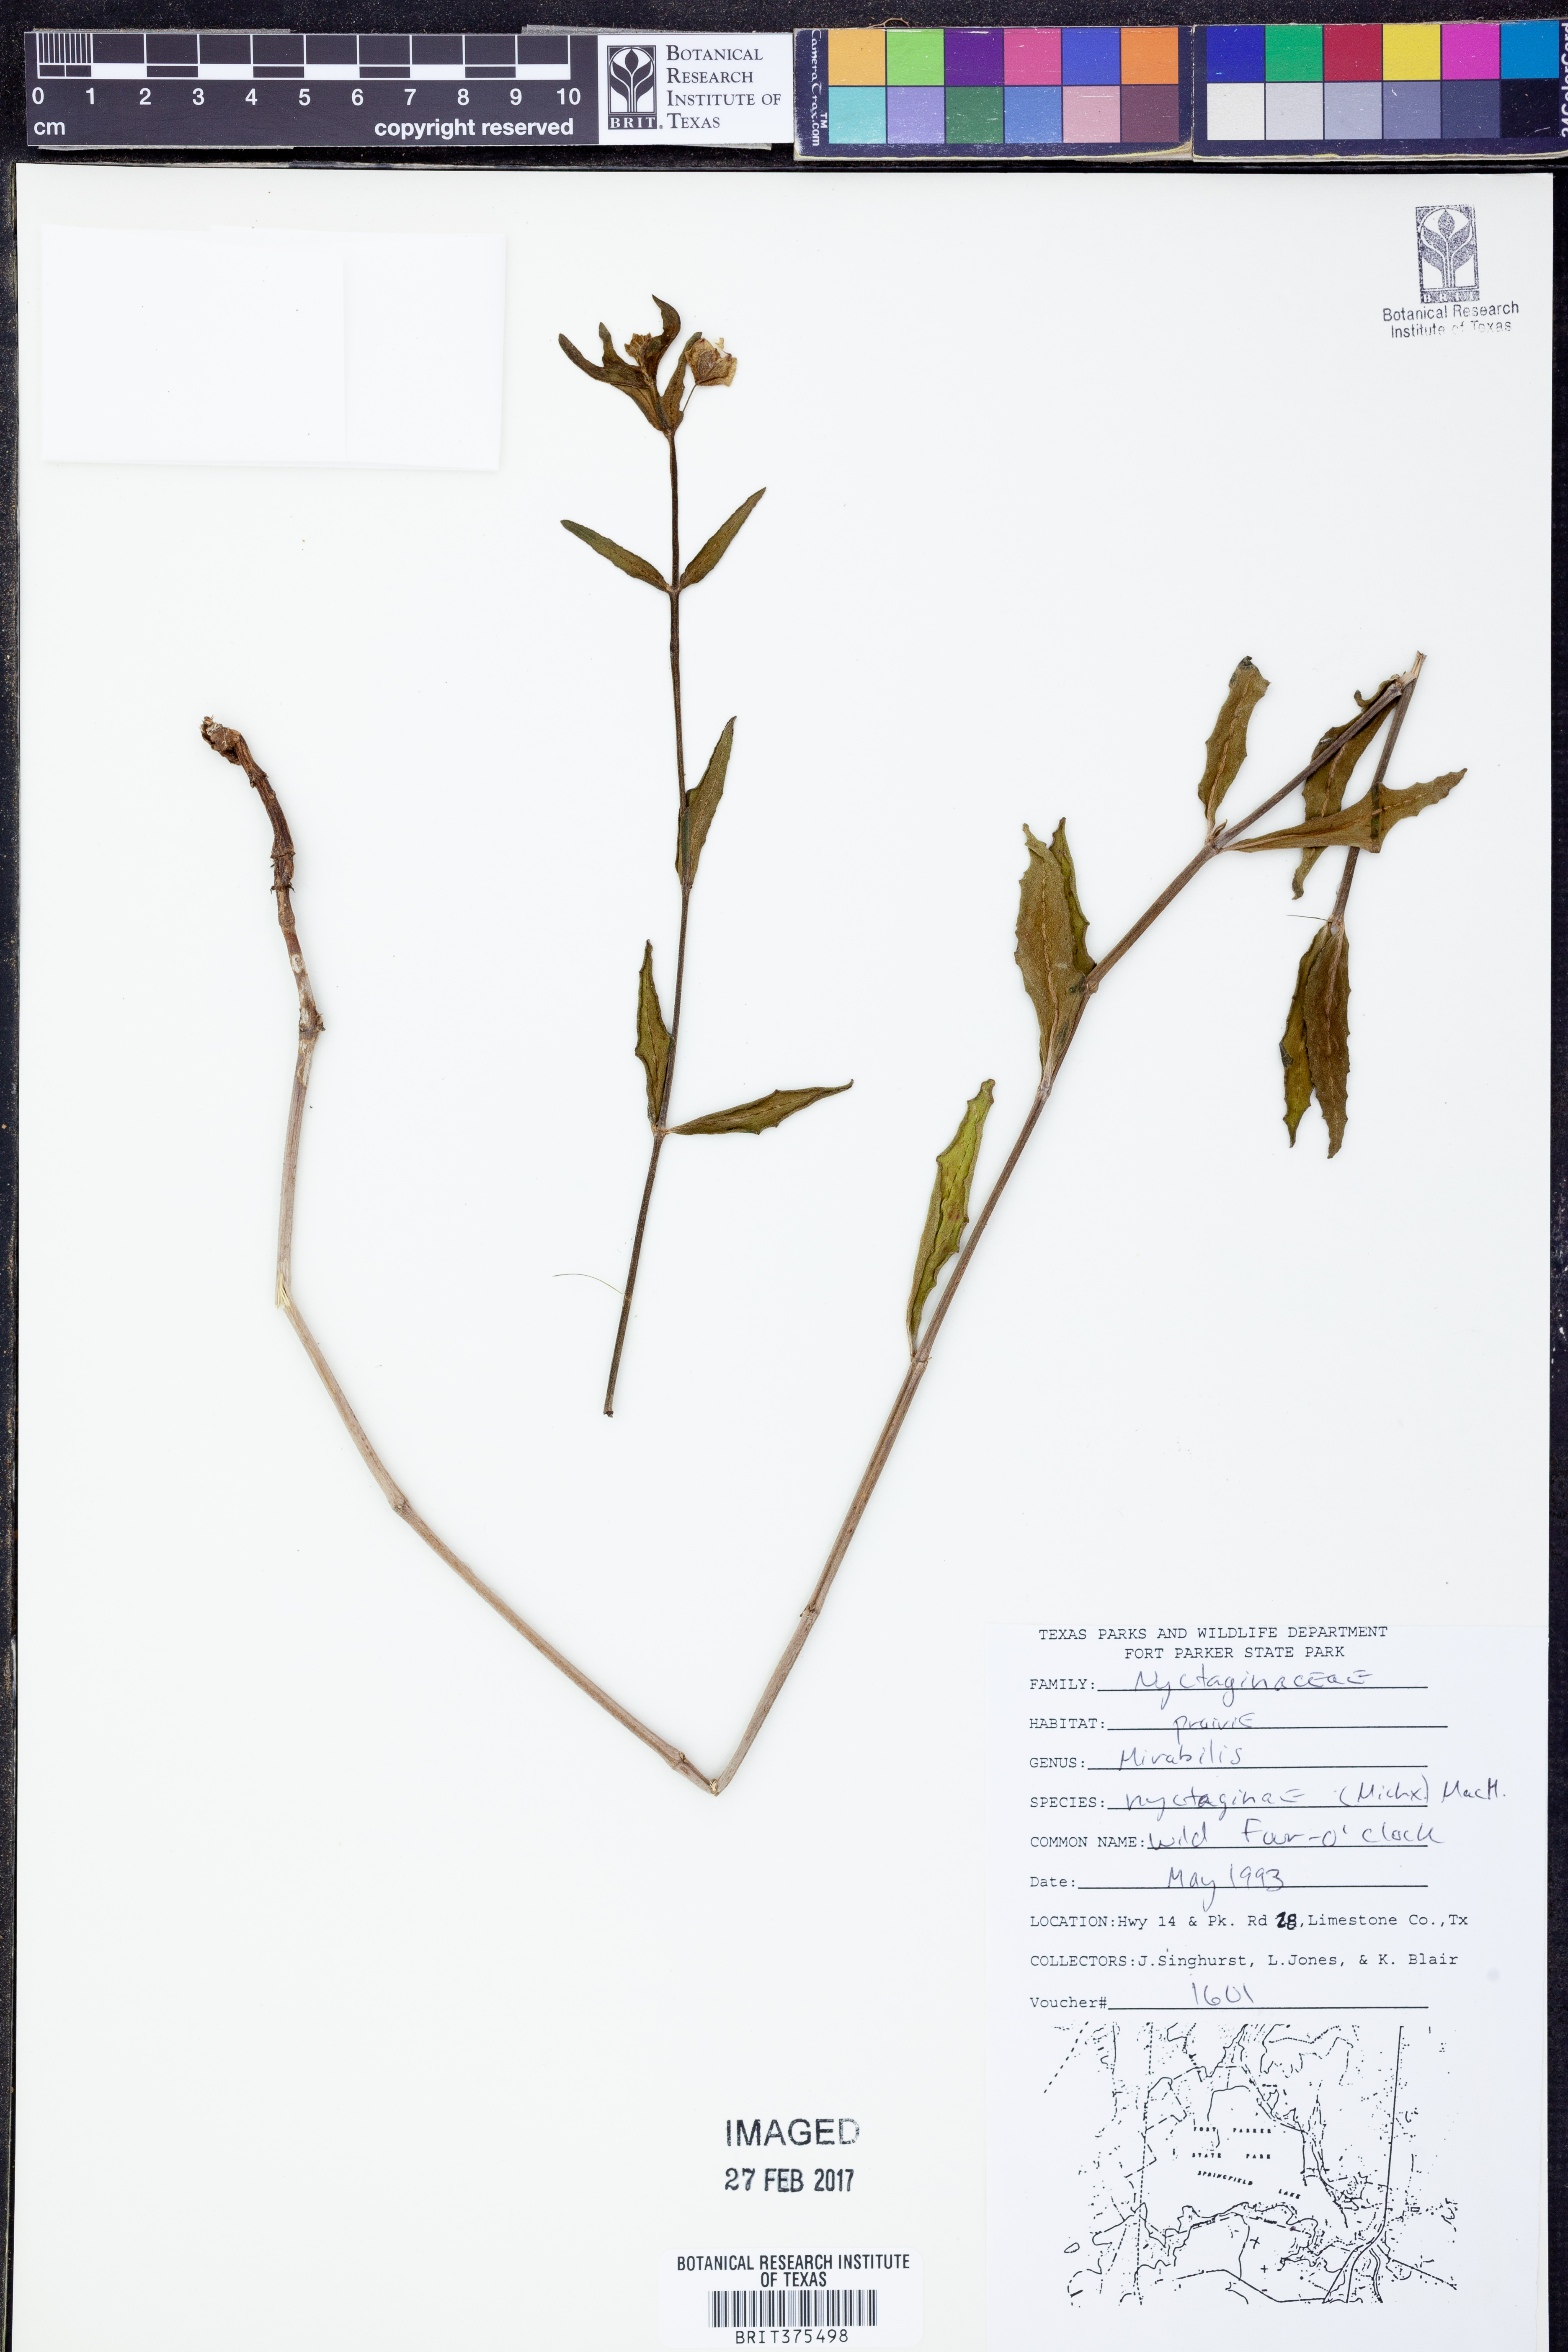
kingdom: Plantae
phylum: Tracheophyta
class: Magnoliopsida
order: Caryophyllales
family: Nyctaginaceae
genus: Mirabilis
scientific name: Mirabilis nyctaginea
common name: Umbrella wort
